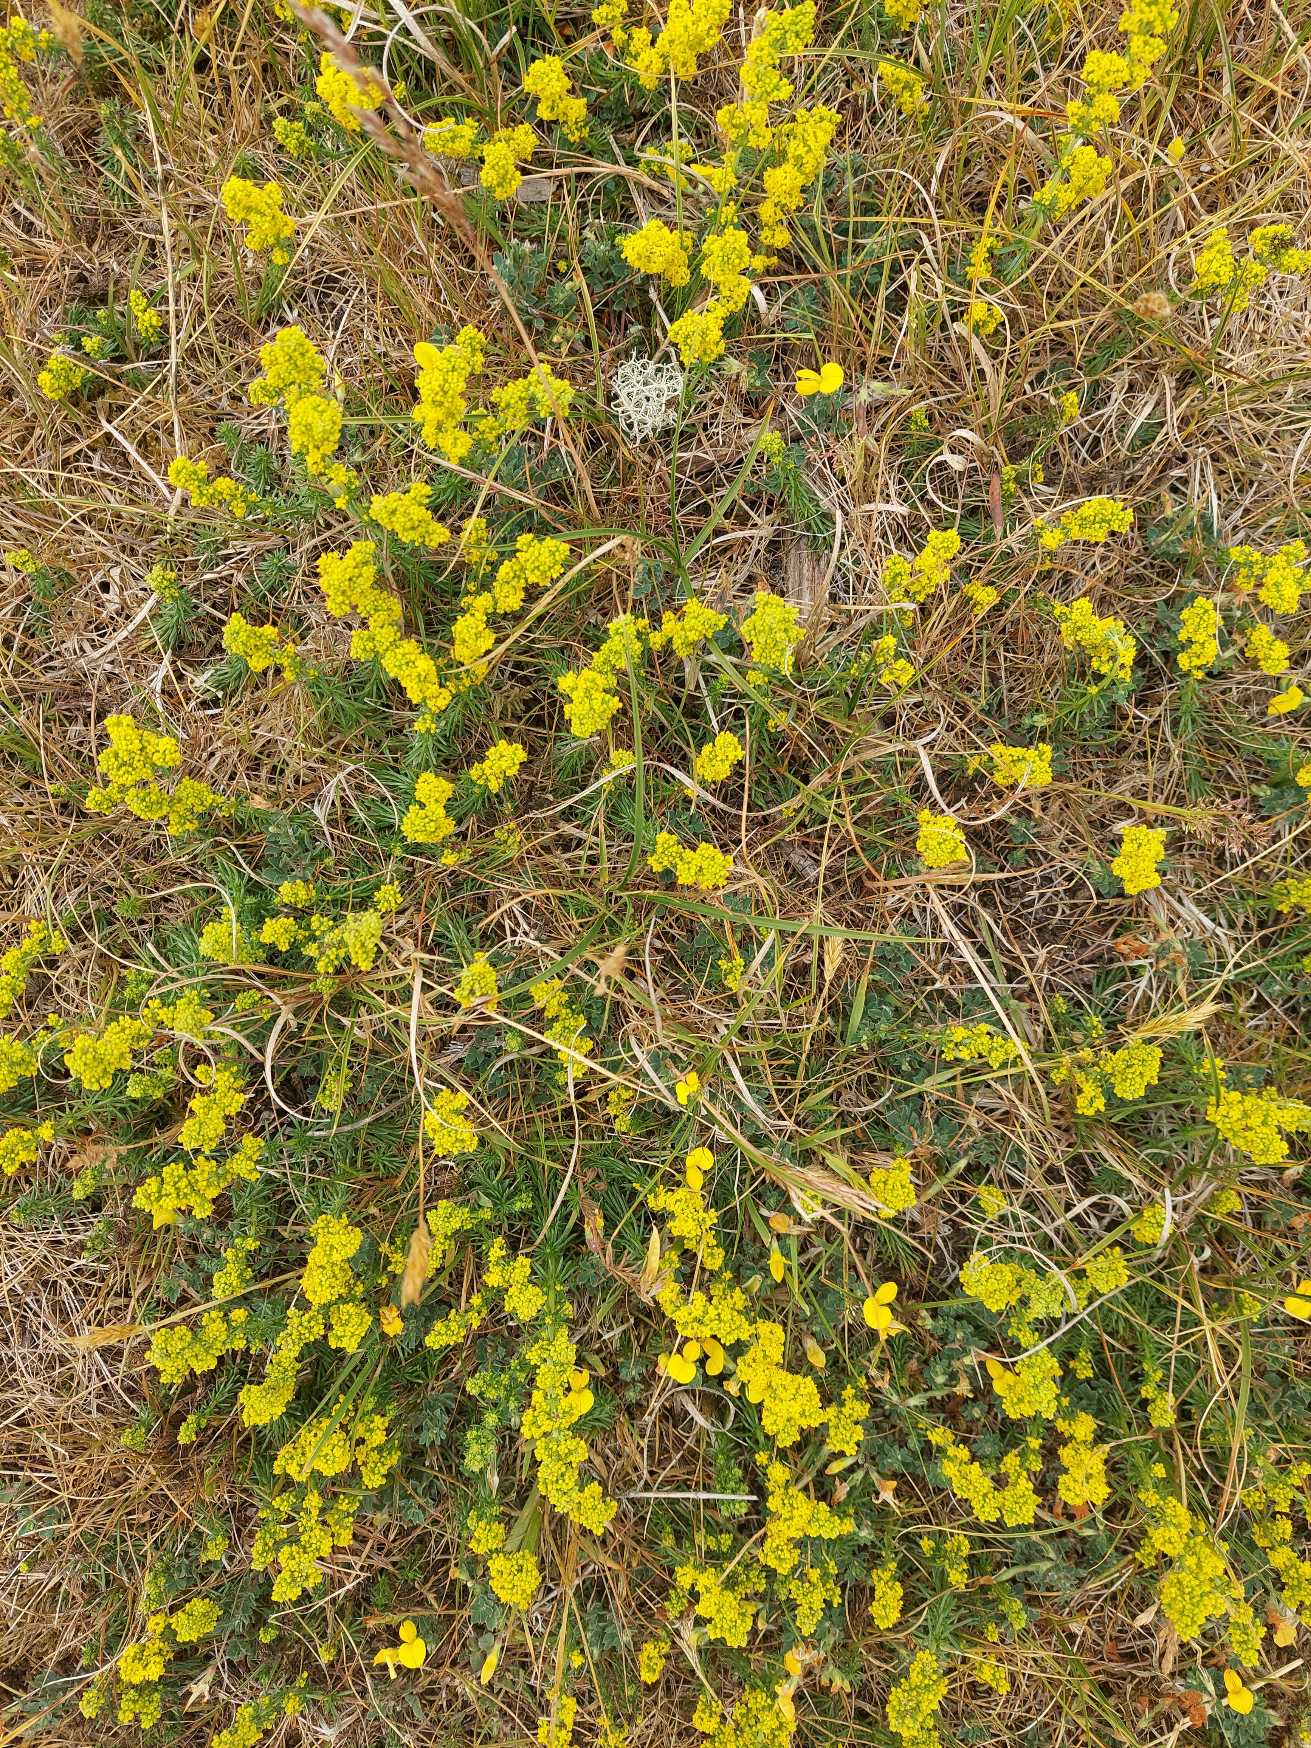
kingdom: Plantae
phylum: Tracheophyta
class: Magnoliopsida
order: Gentianales
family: Rubiaceae
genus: Galium
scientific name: Galium verum
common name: Gul snerre
